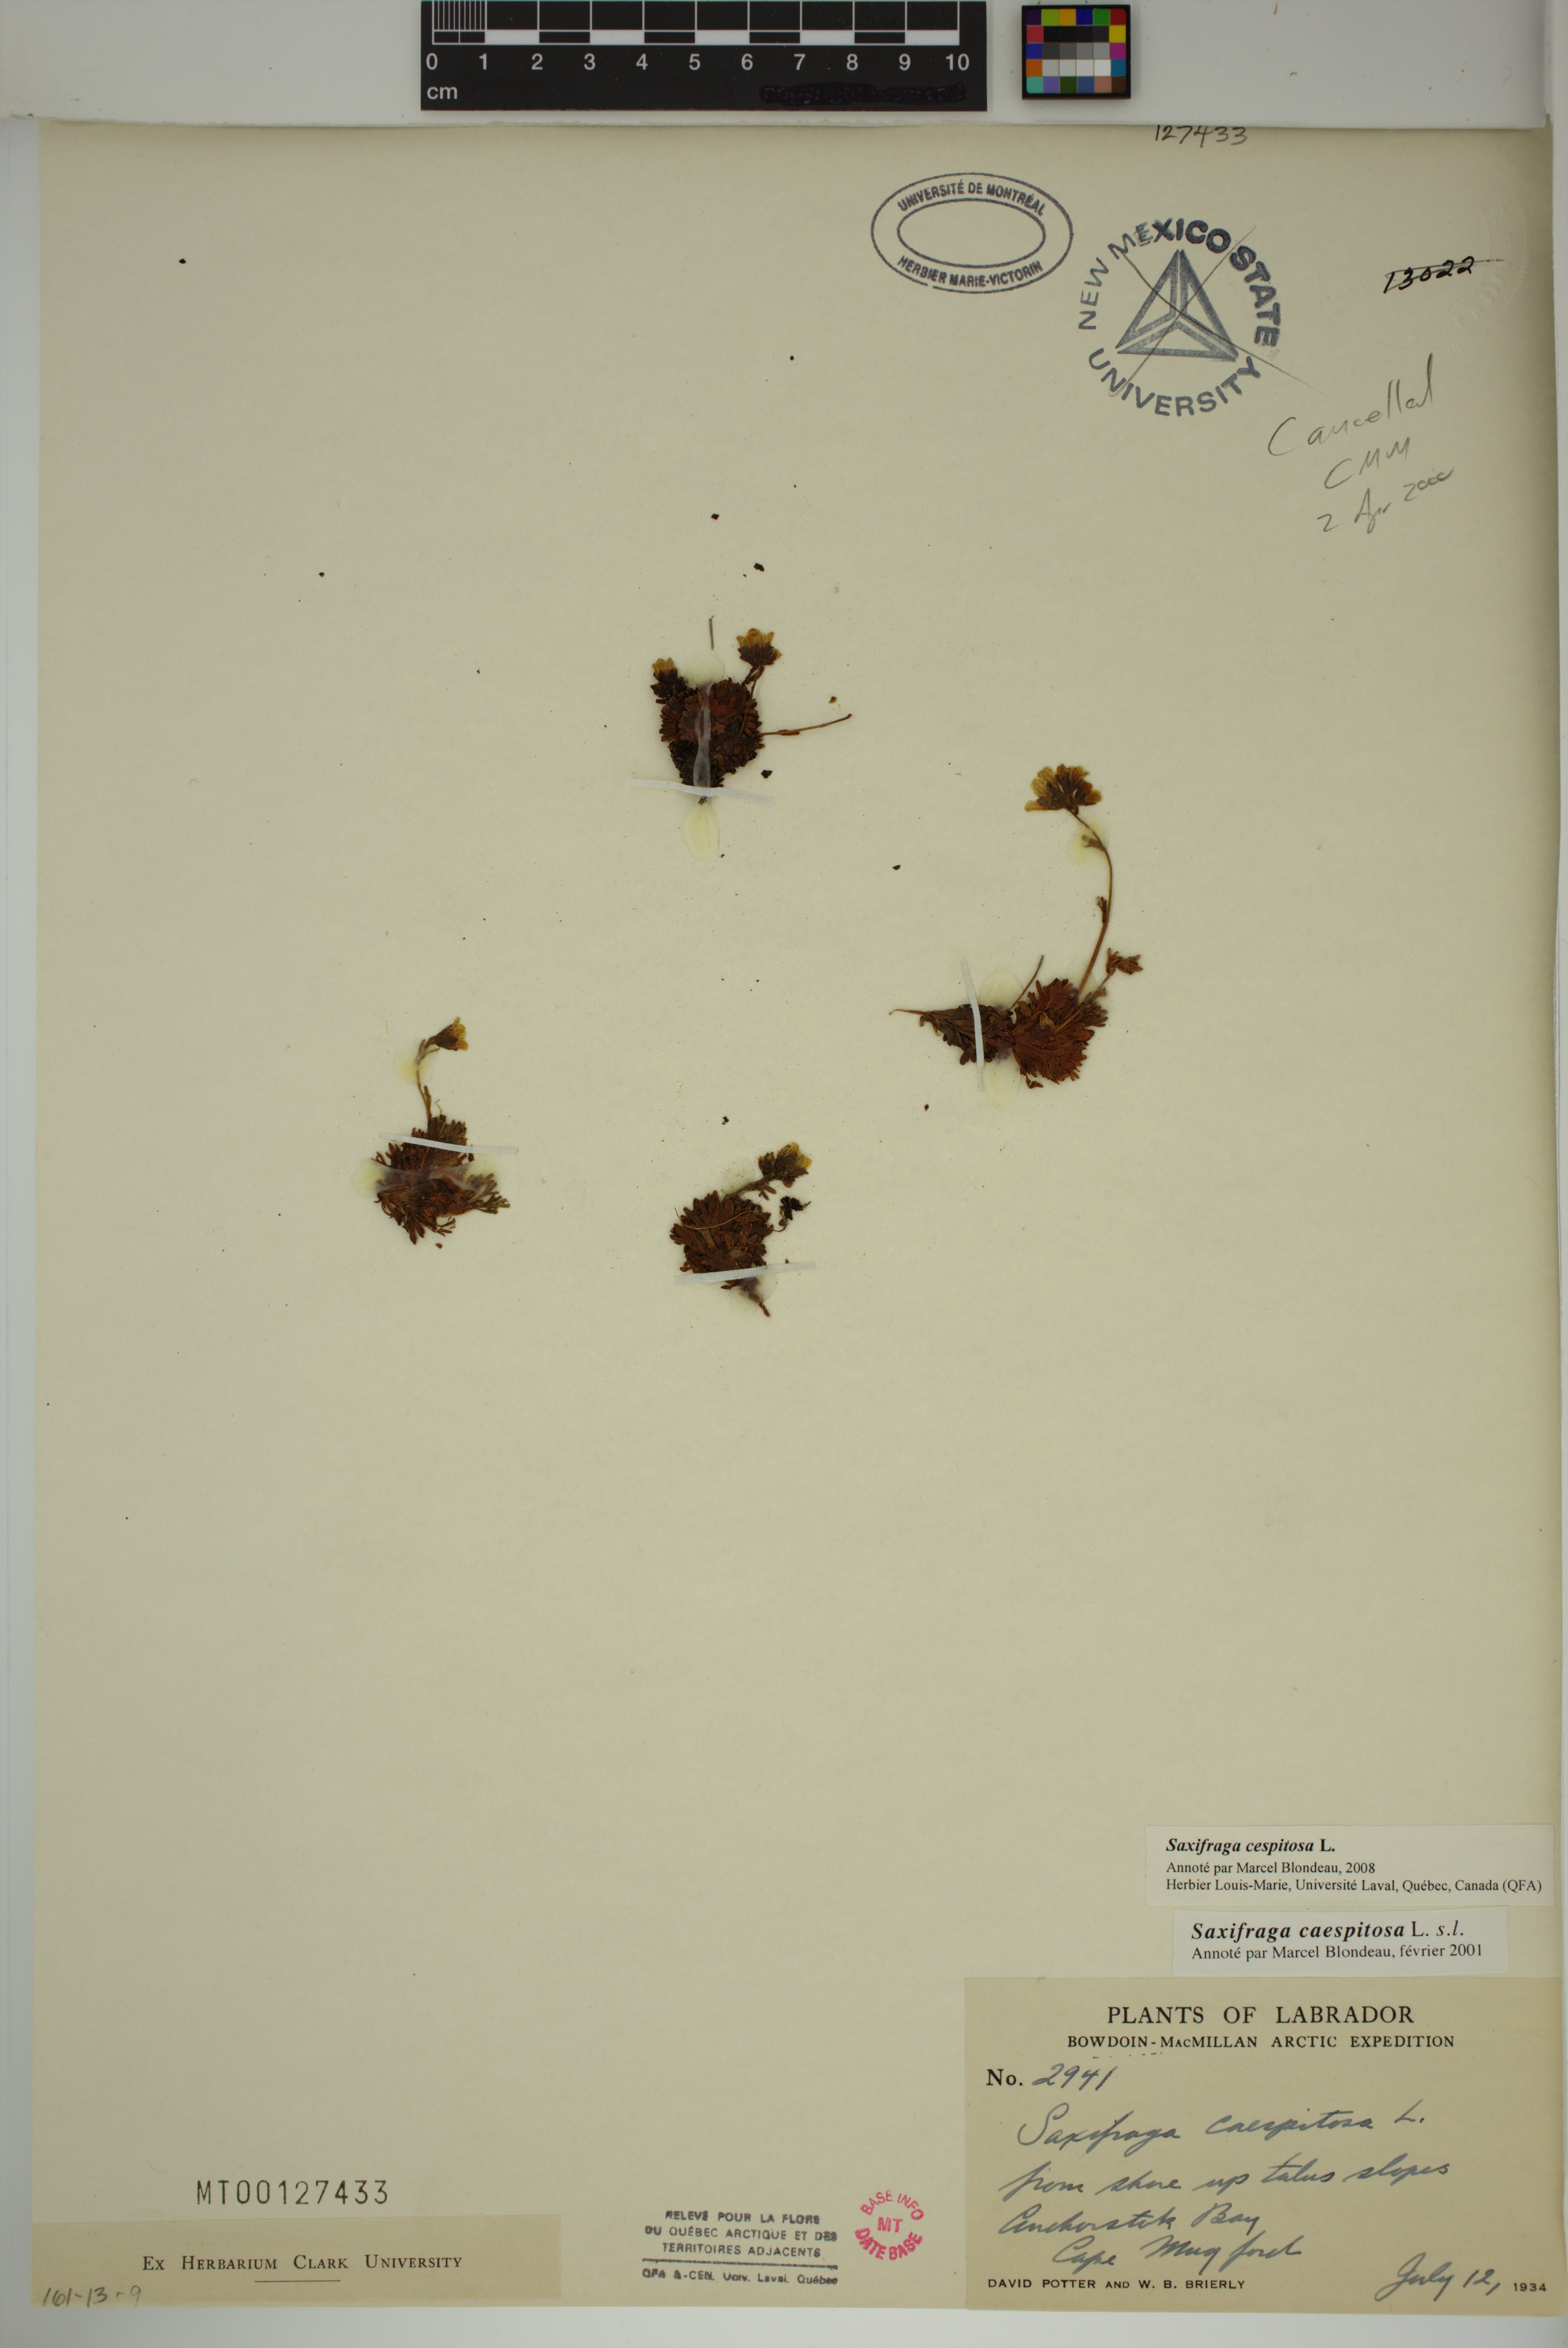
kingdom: Plantae
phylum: Tracheophyta
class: Magnoliopsida
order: Saxifragales
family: Saxifragaceae
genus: Saxifraga
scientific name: Saxifraga cespitosa
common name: Tufted saxifrage
